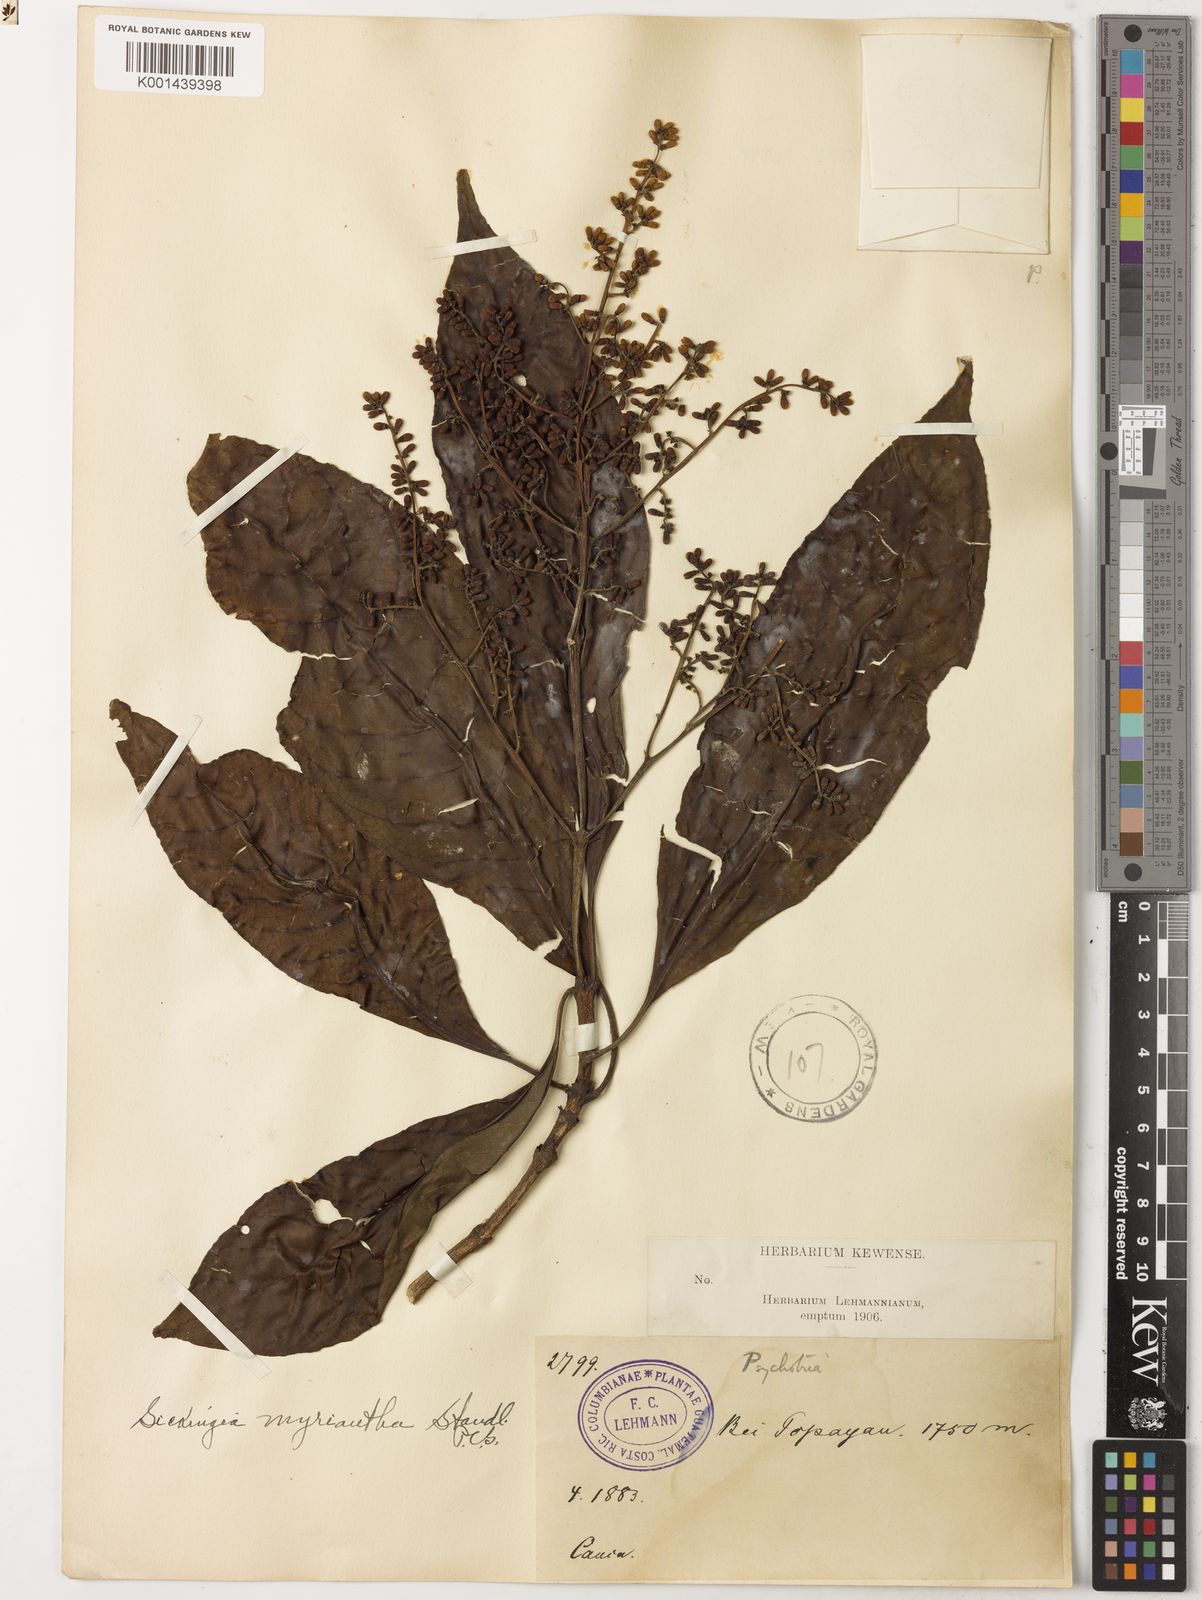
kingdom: Plantae
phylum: Tracheophyta
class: Magnoliopsida
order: Gentianales
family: Rubiaceae
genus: Elaeagia
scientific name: Elaeagia myriantha
